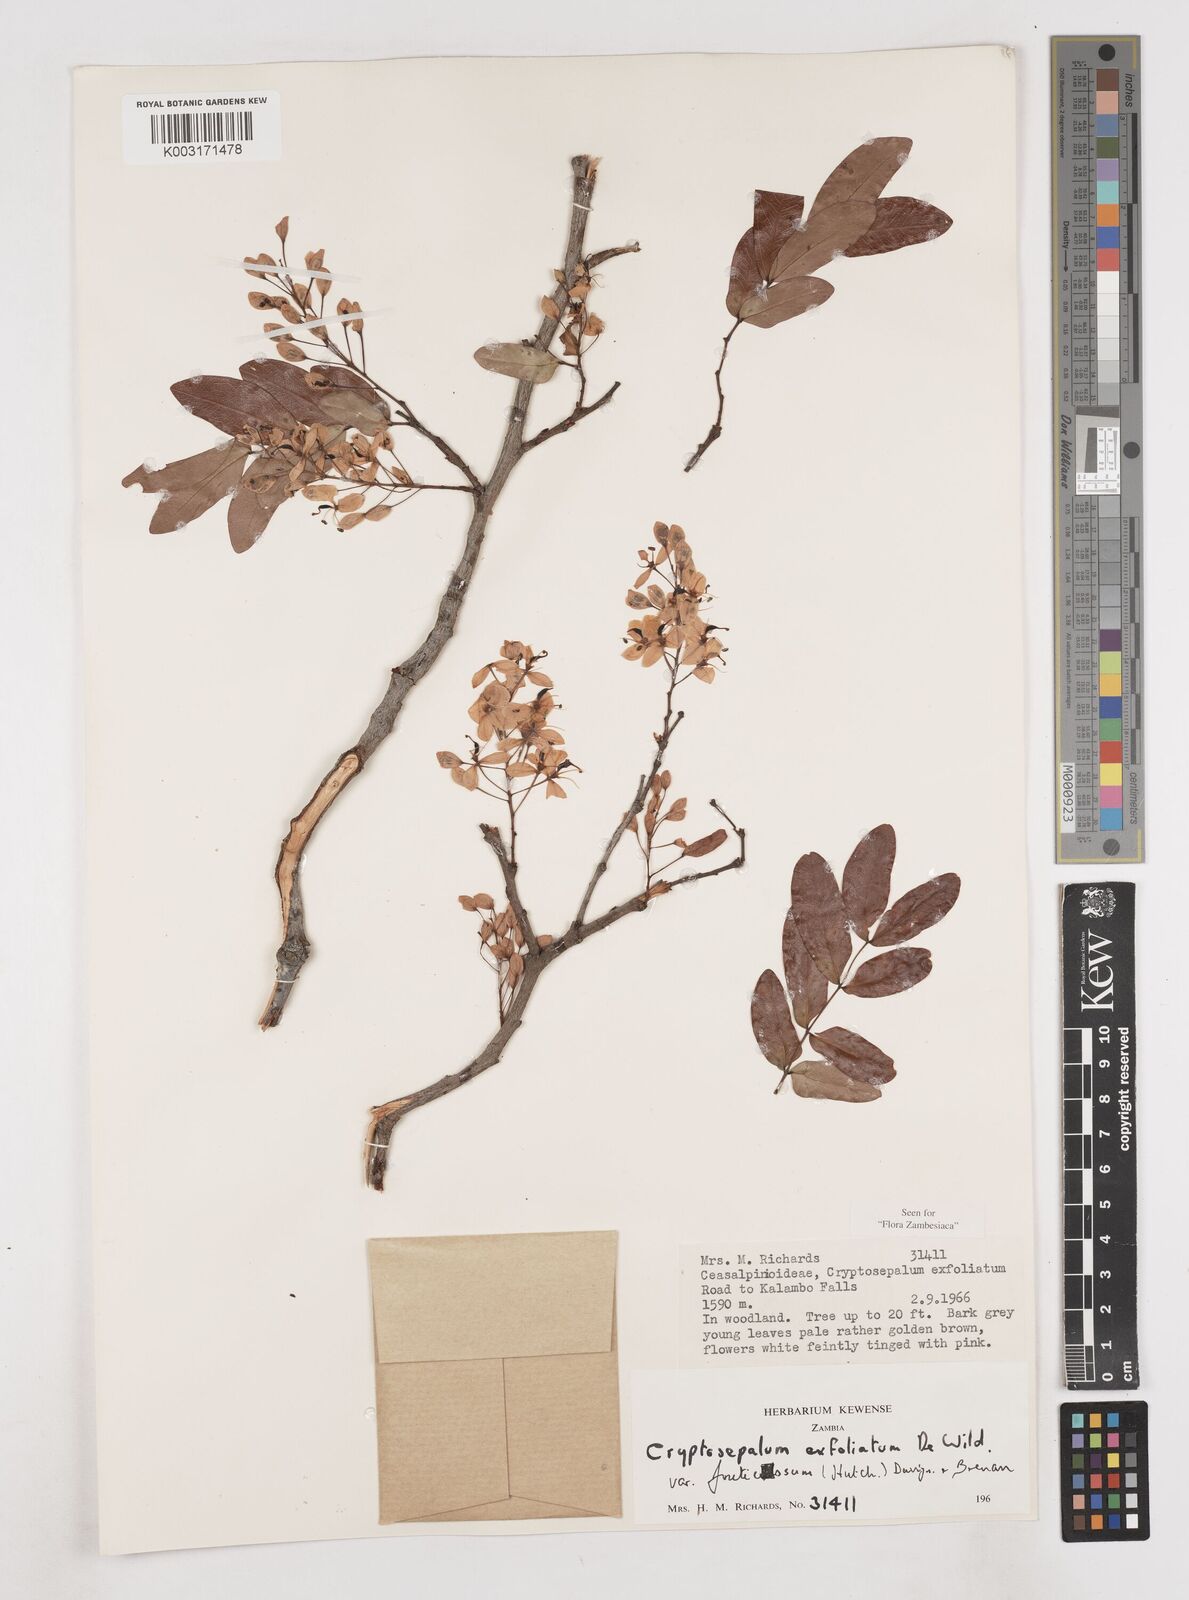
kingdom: Plantae
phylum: Tracheophyta
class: Magnoliopsida
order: Fabales
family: Fabaceae
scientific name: Fabaceae
